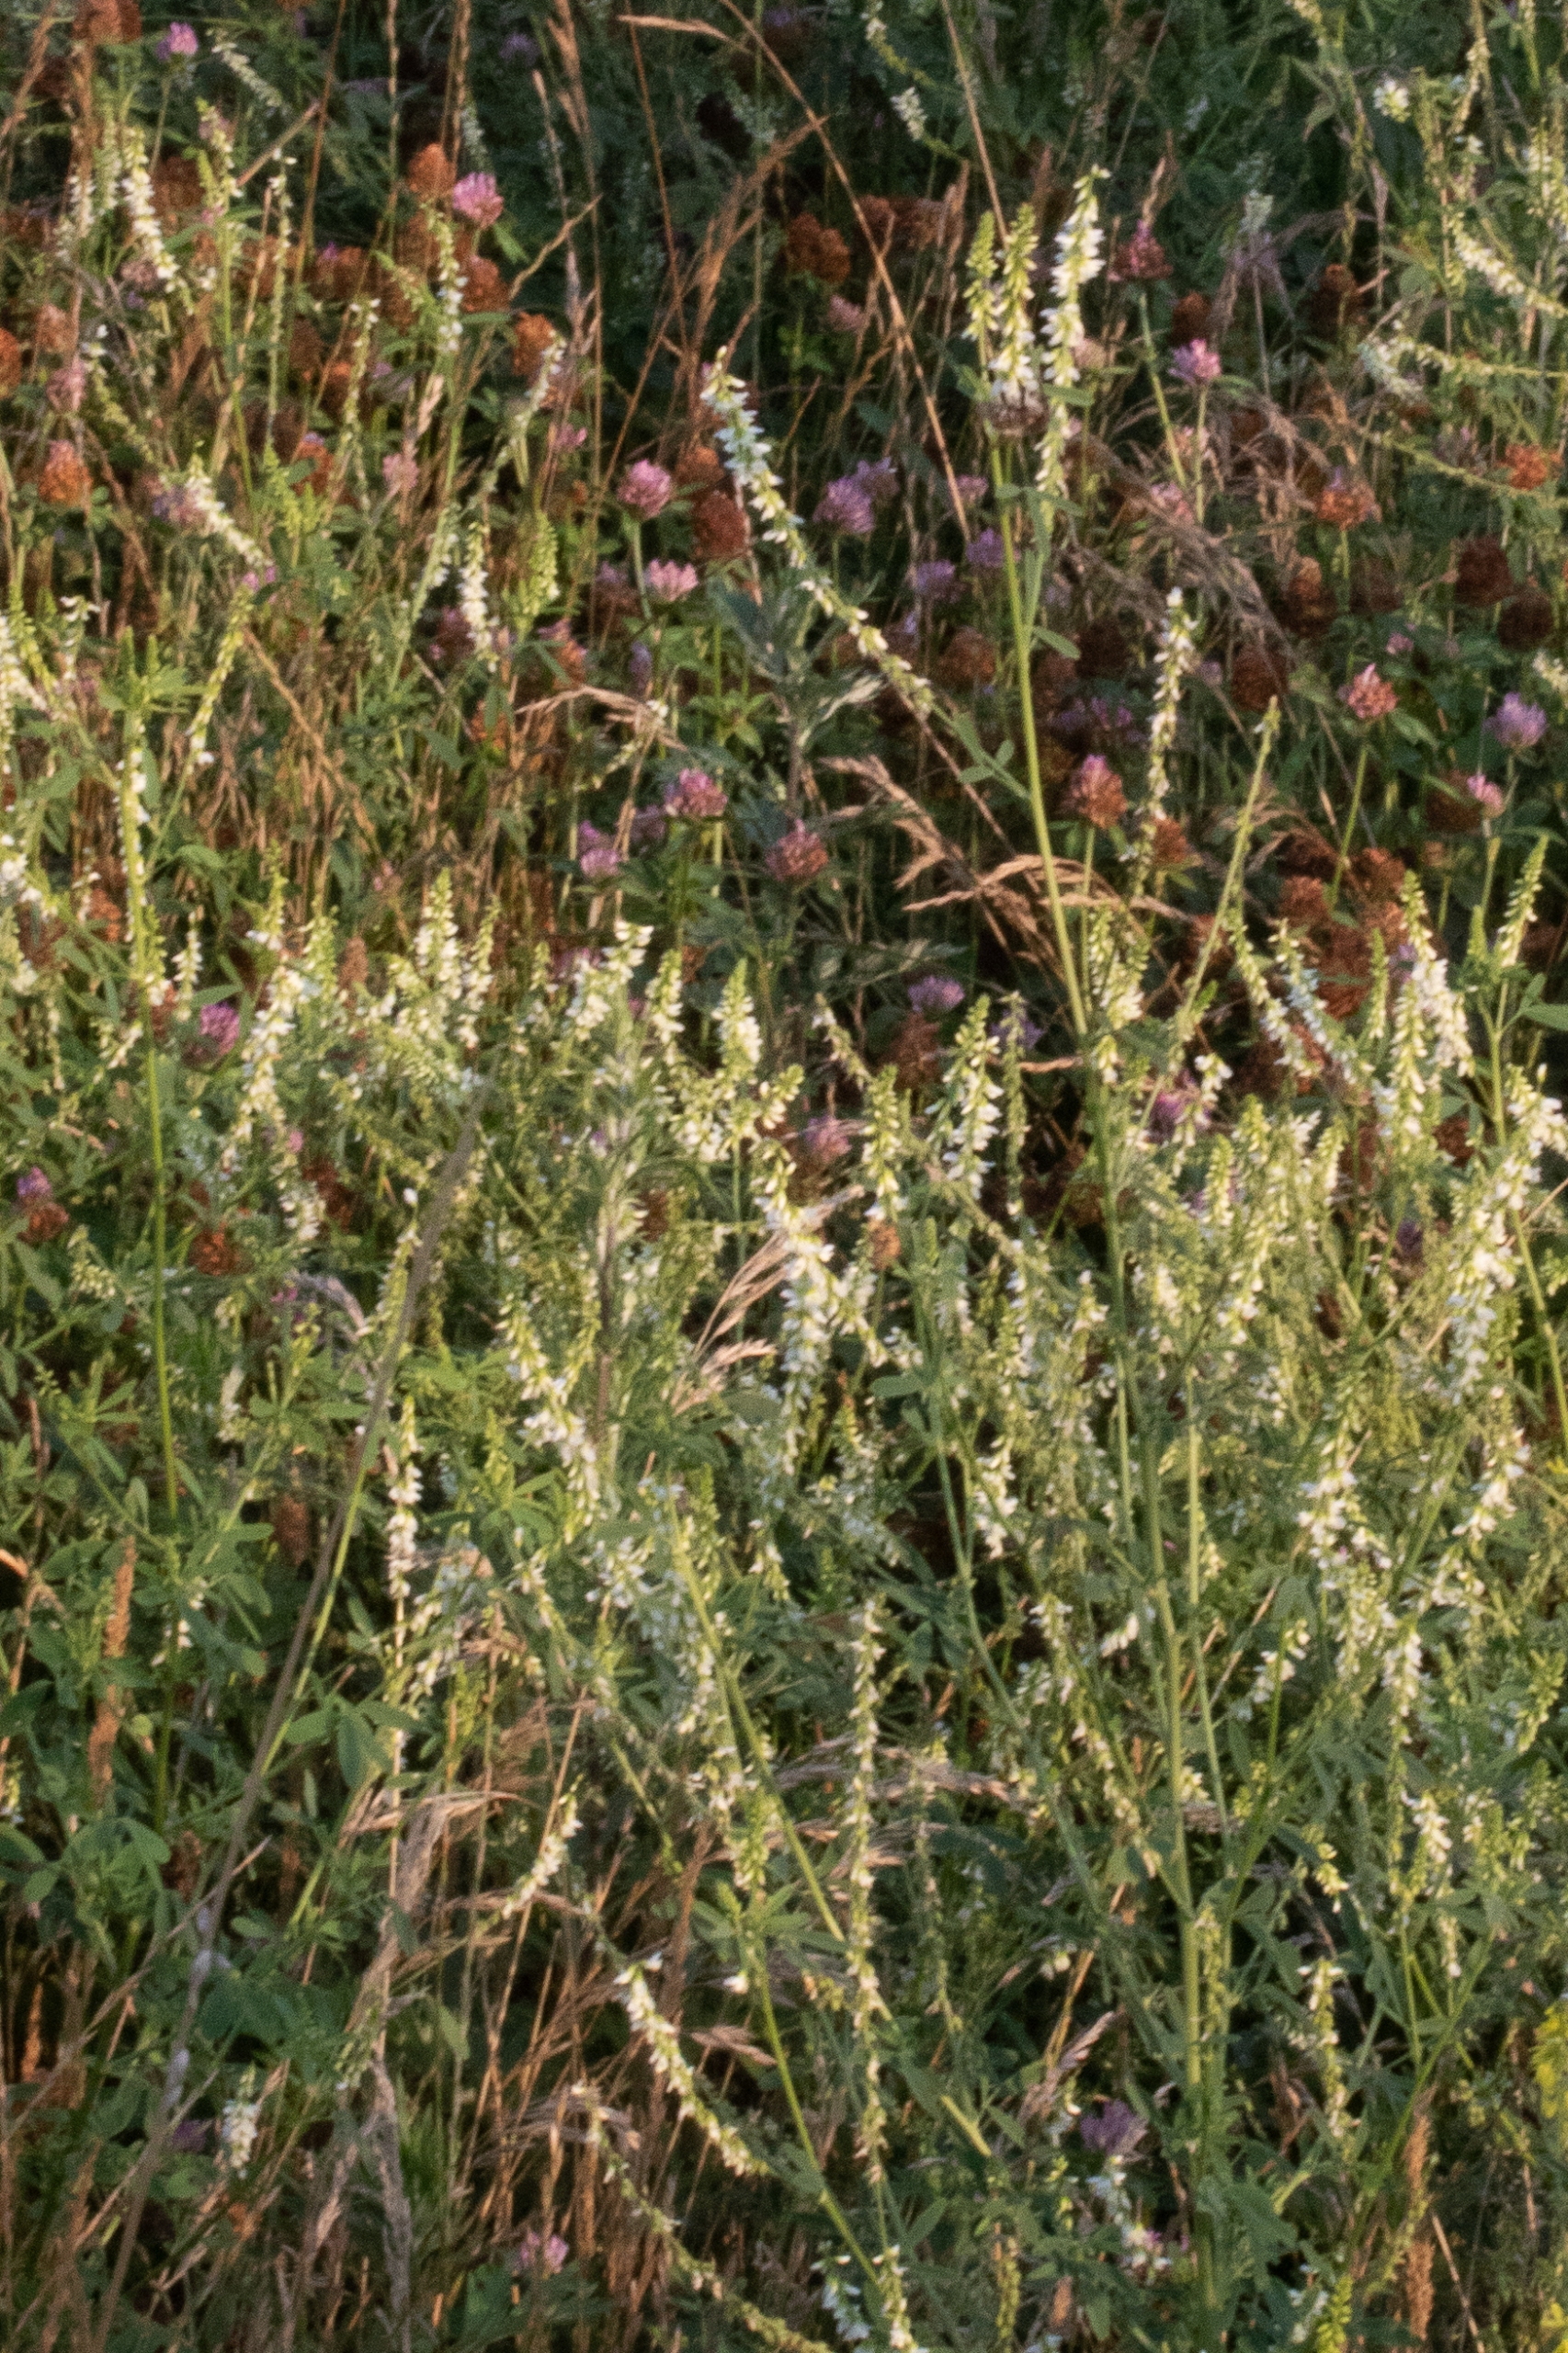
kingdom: Plantae
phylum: Tracheophyta
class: Magnoliopsida
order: Fabales
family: Fabaceae
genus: Melilotus
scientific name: Melilotus albus
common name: Hvid stenkløver
